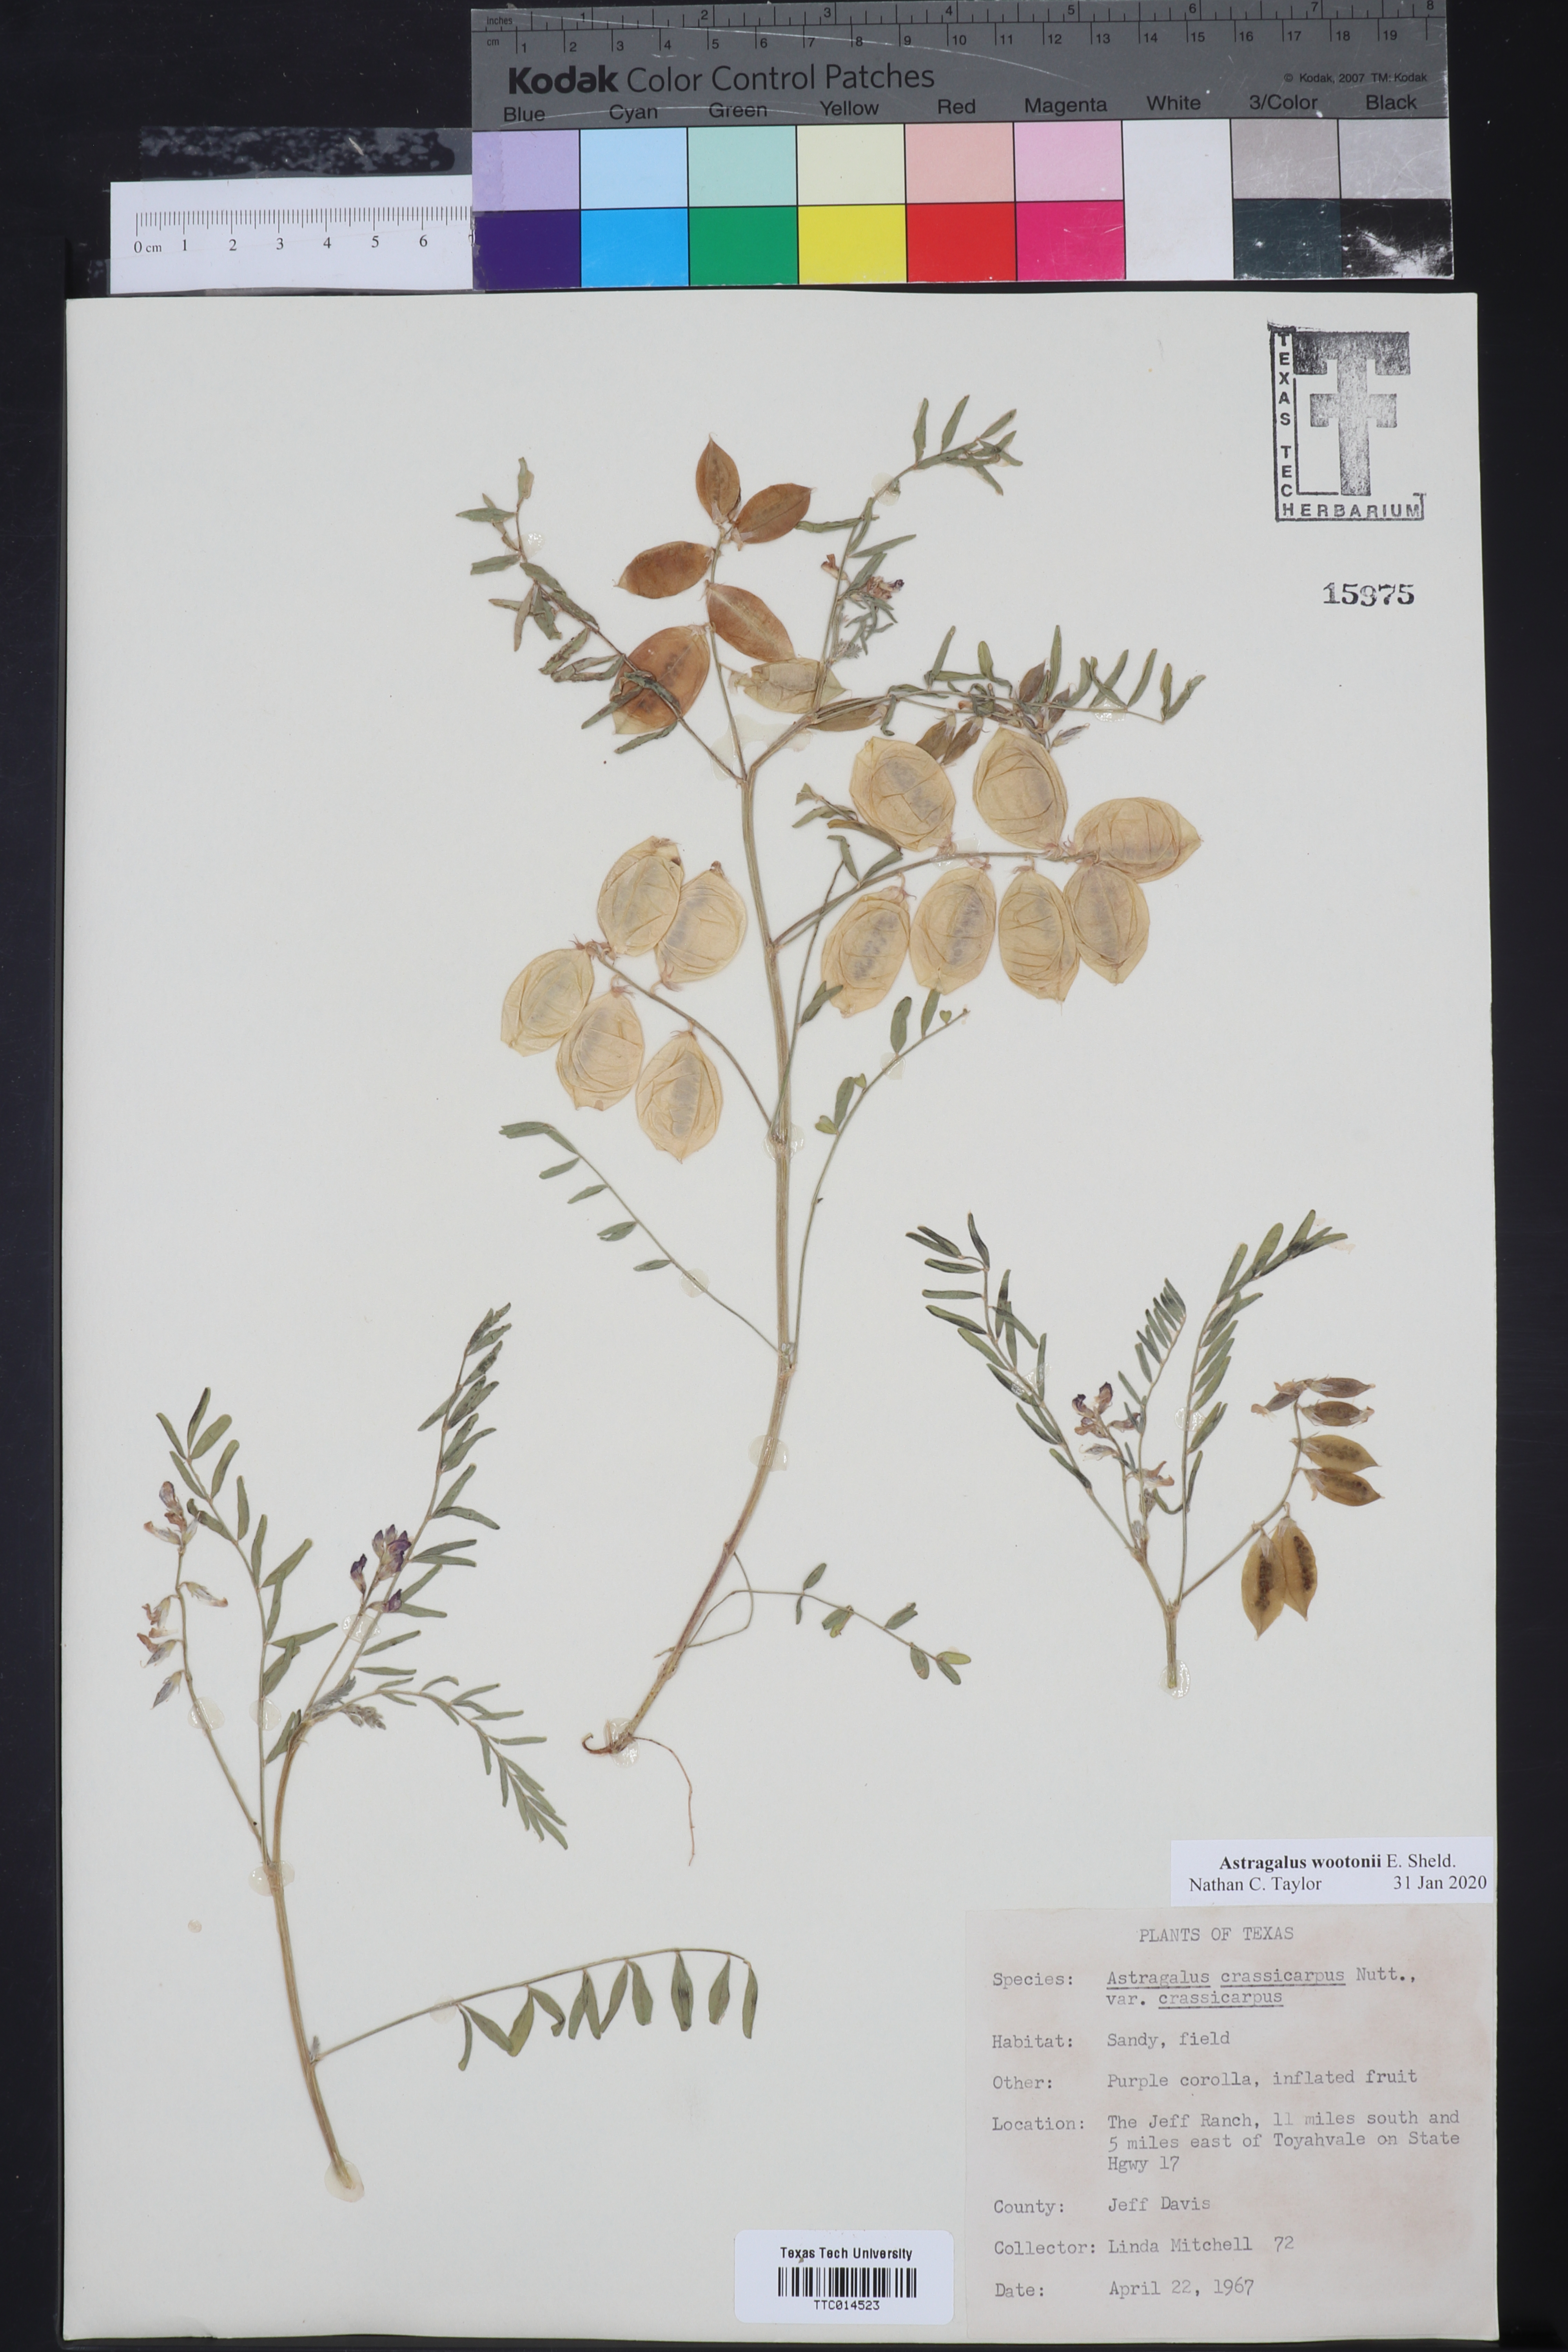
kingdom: Plantae
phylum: Tracheophyta
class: Magnoliopsida
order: Fabales
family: Fabaceae
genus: Astragalus
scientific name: Astragalus wootonii
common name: Wooton's milk-vetch
